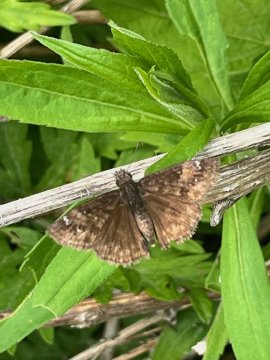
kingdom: Animalia
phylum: Arthropoda
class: Insecta
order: Lepidoptera
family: Hesperiidae
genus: Autochton
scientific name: Autochton
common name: Northern Cloudywing
